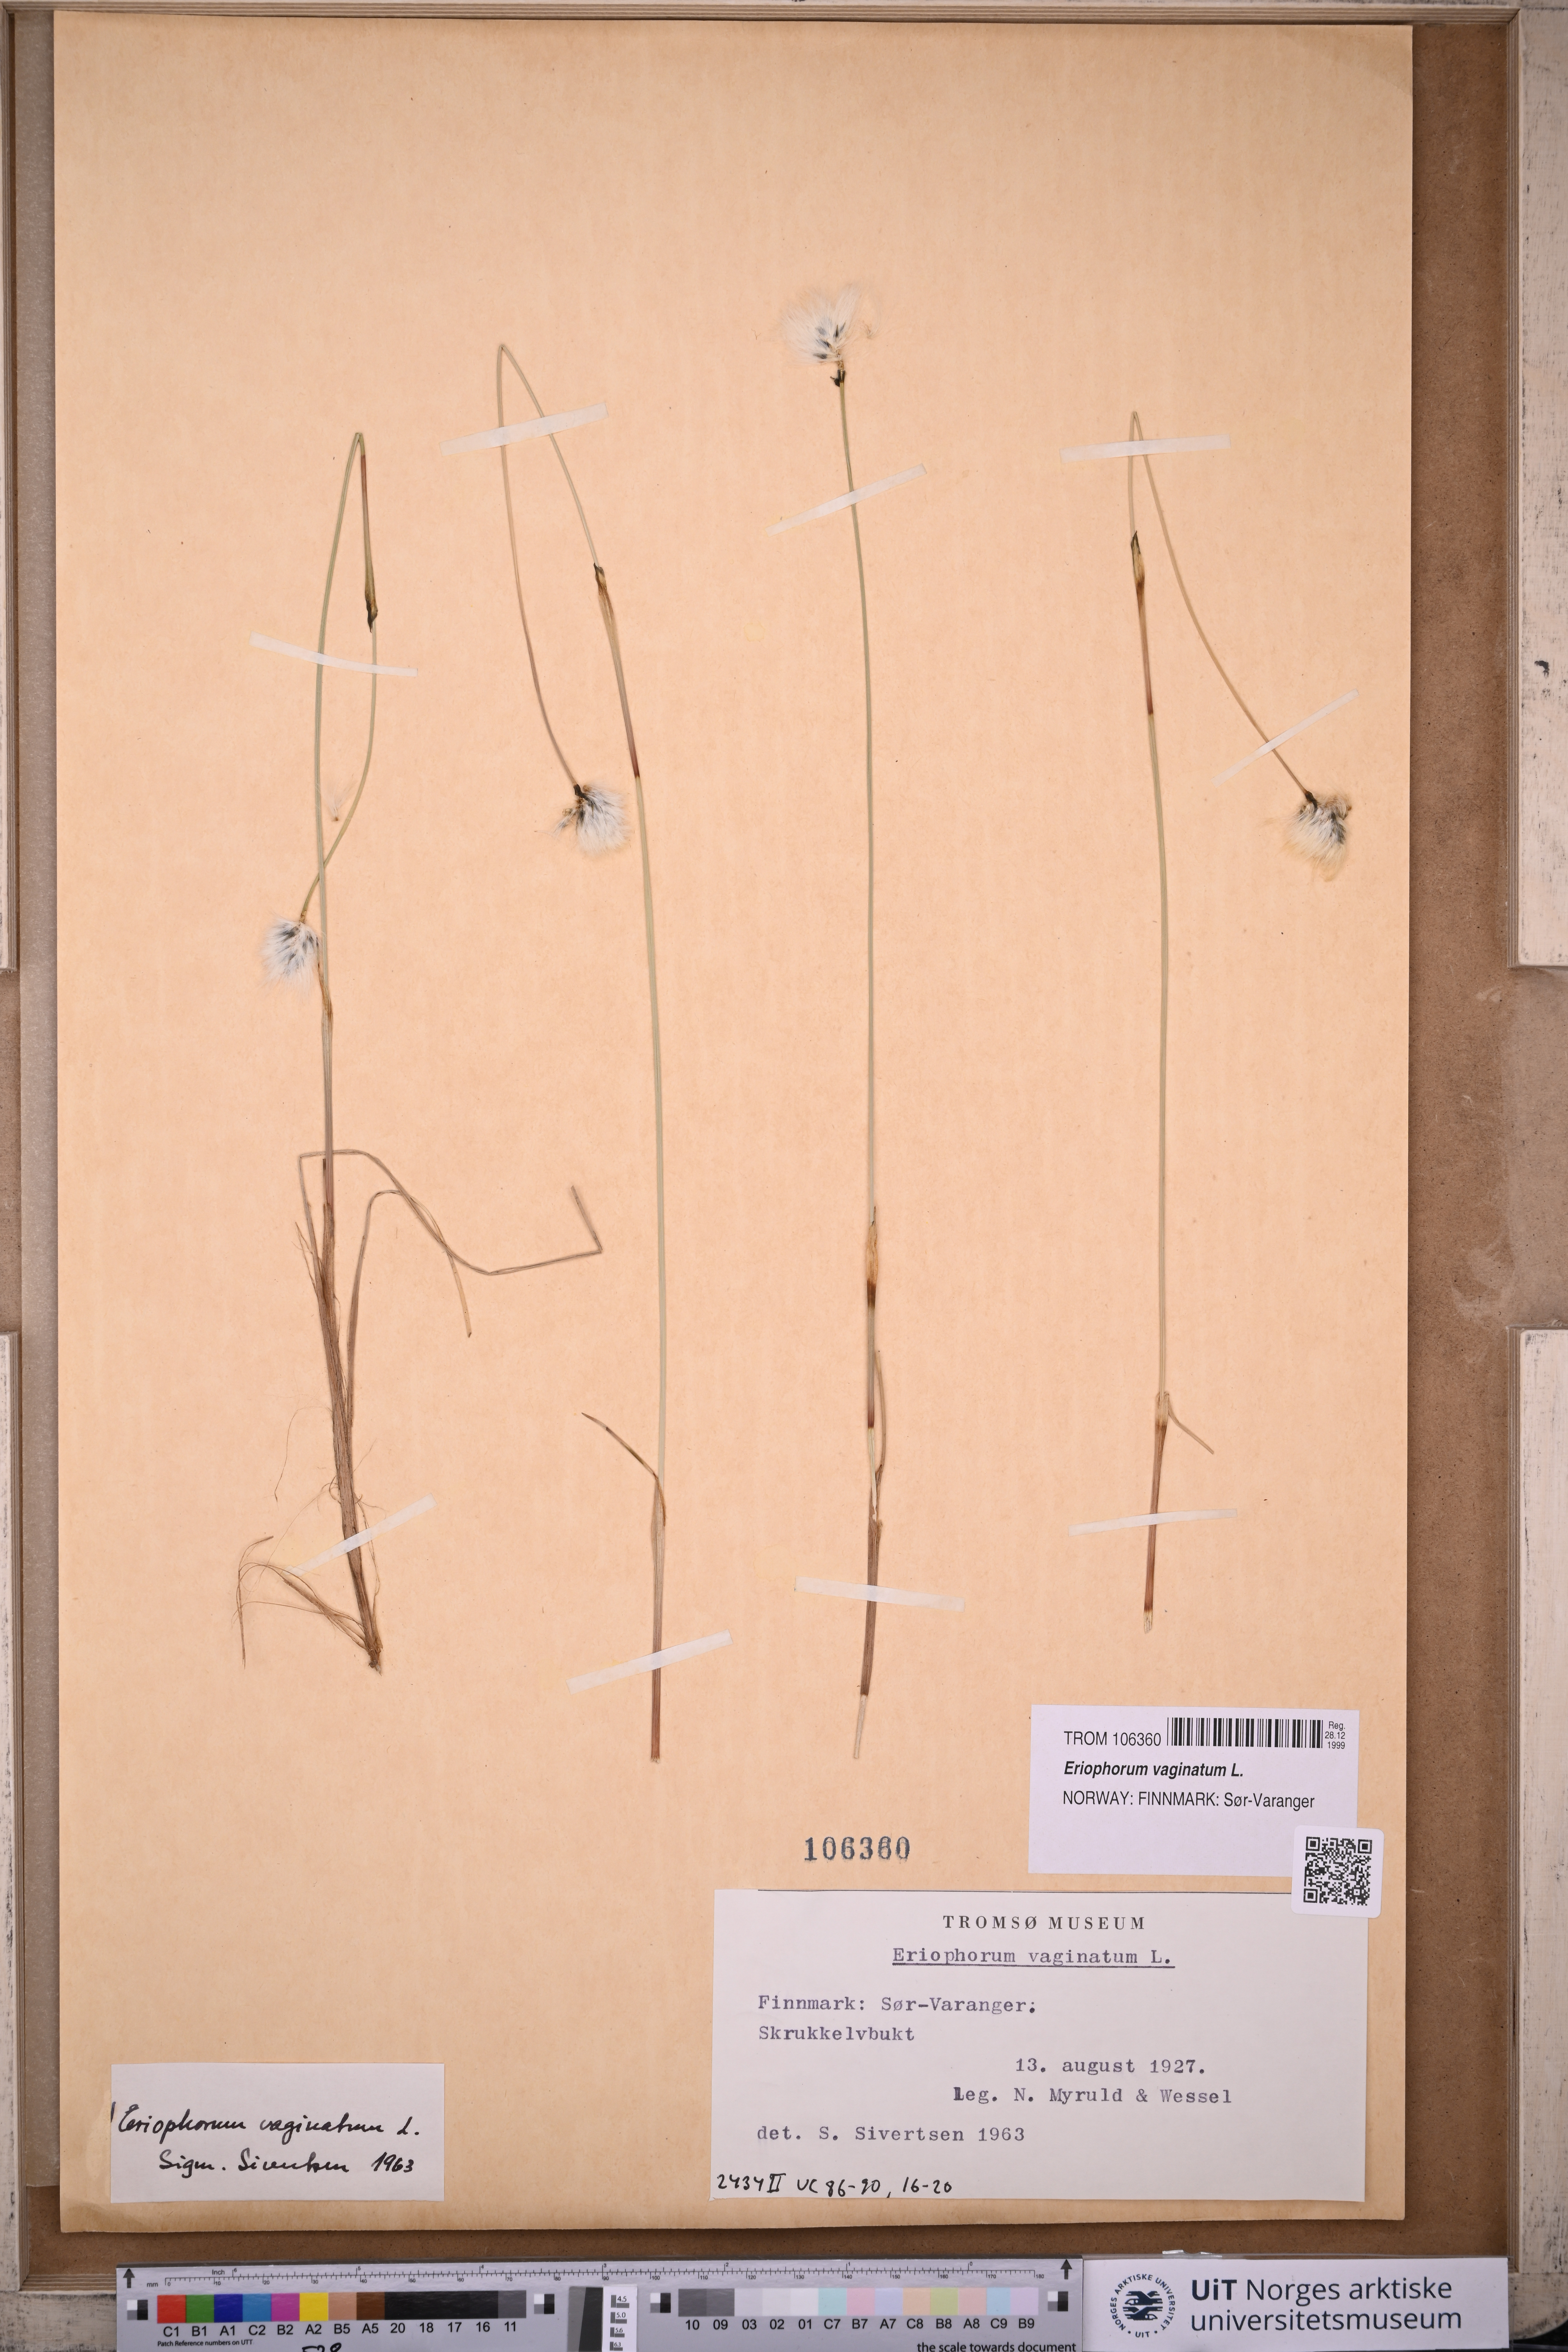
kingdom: Plantae
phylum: Tracheophyta
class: Liliopsida
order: Poales
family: Cyperaceae
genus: Eriophorum
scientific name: Eriophorum vaginatum
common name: Hare's-tail cottongrass
